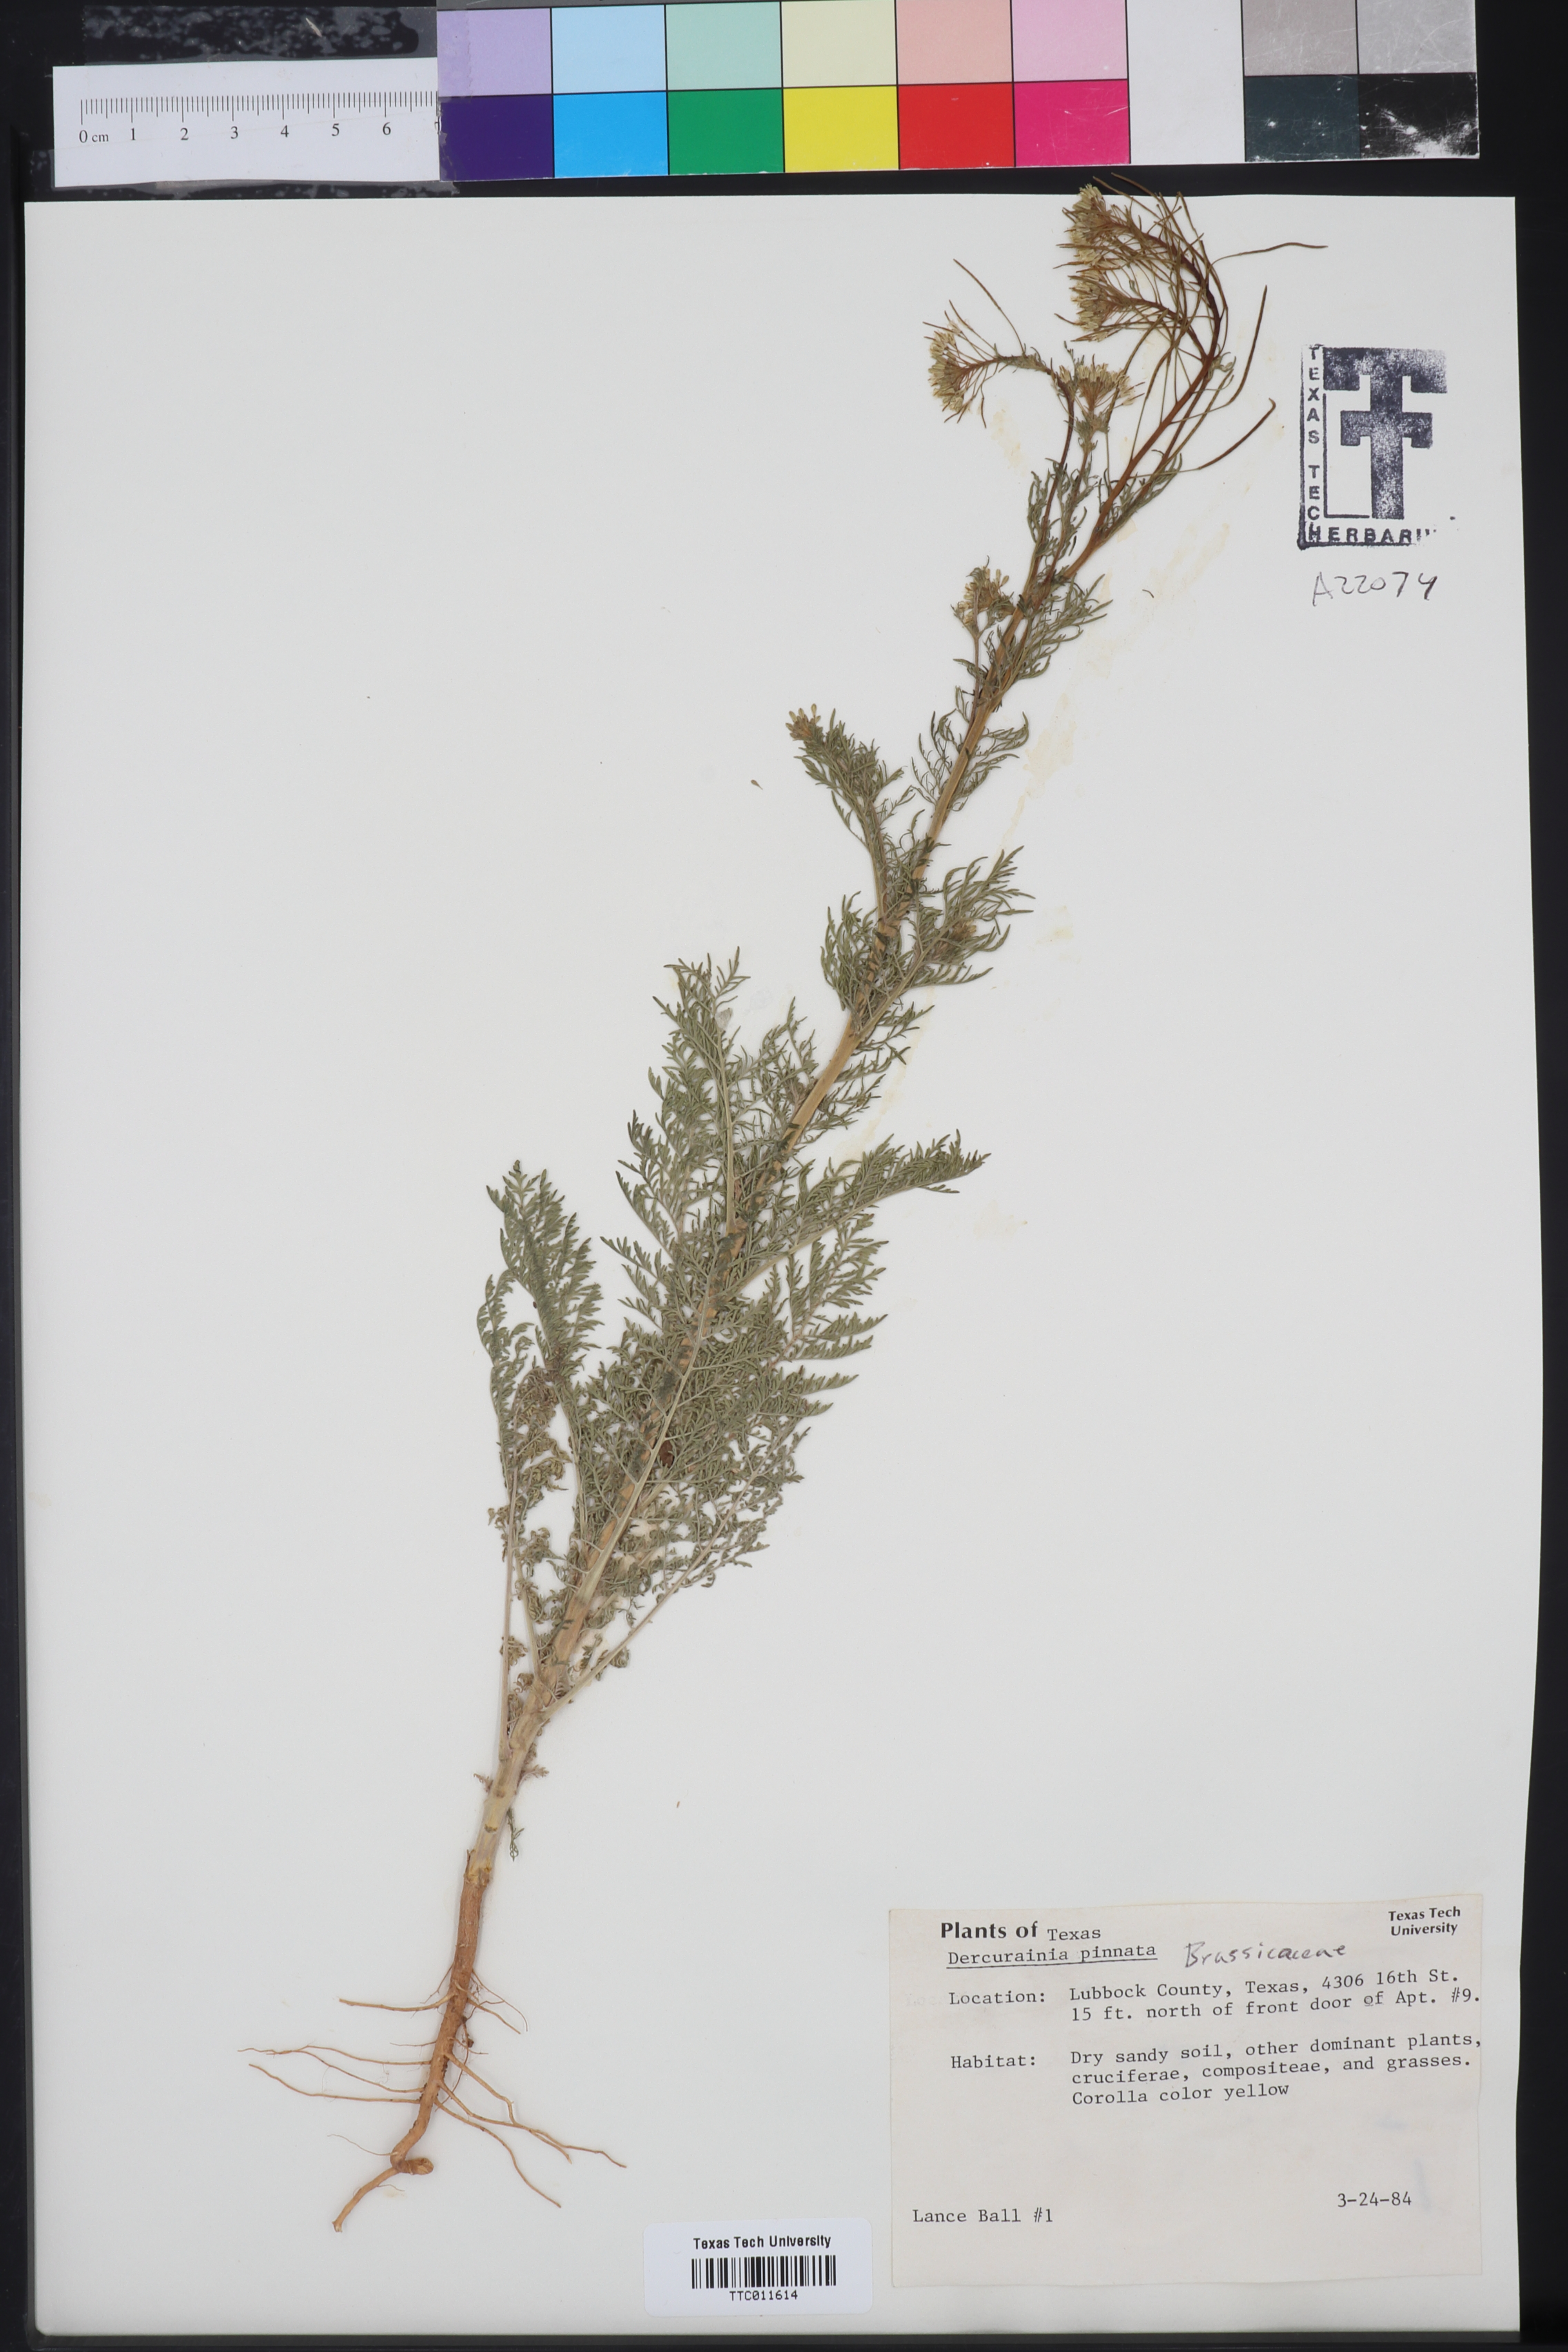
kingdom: Plantae
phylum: Tracheophyta
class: Magnoliopsida
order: Brassicales
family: Brassicaceae
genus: Descurainia
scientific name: Descurainia pinnata
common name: Western tansy mustard
